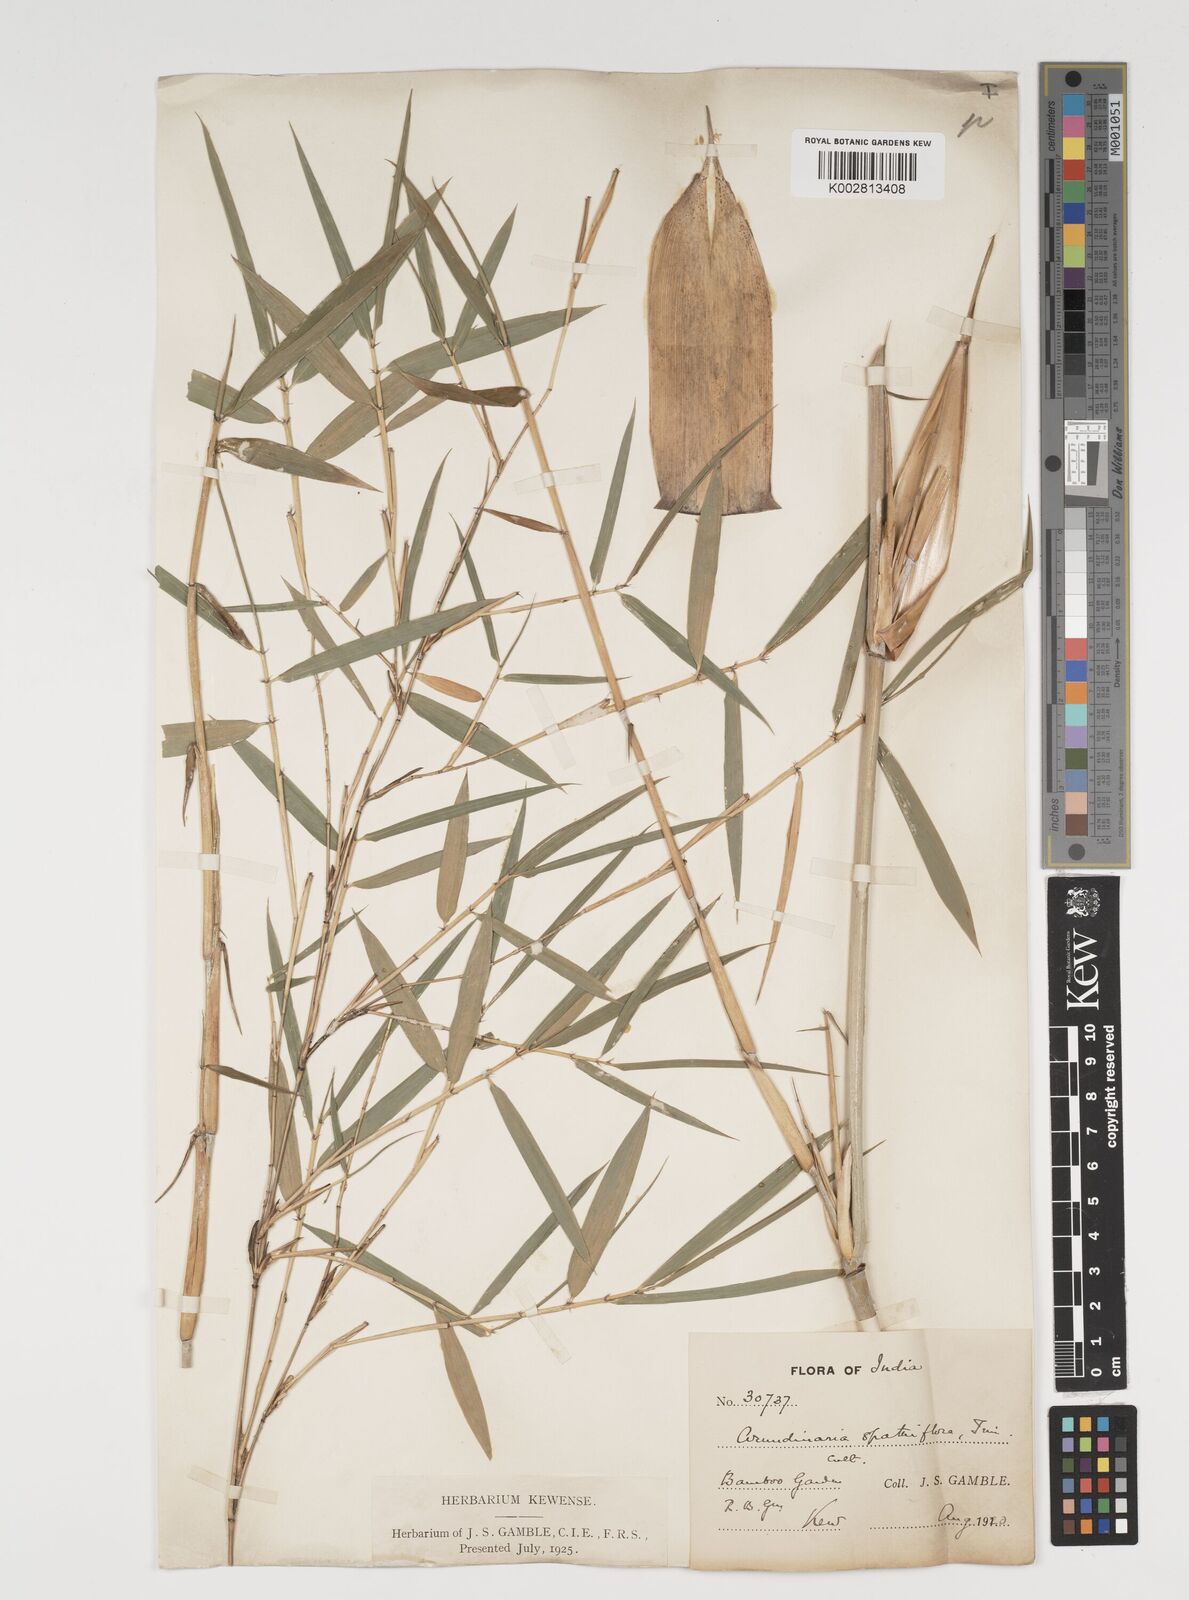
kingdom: Plantae
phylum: Tracheophyta
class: Liliopsida
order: Poales
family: Poaceae
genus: Thamnocalamus
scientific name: Thamnocalamus spathiflorus
